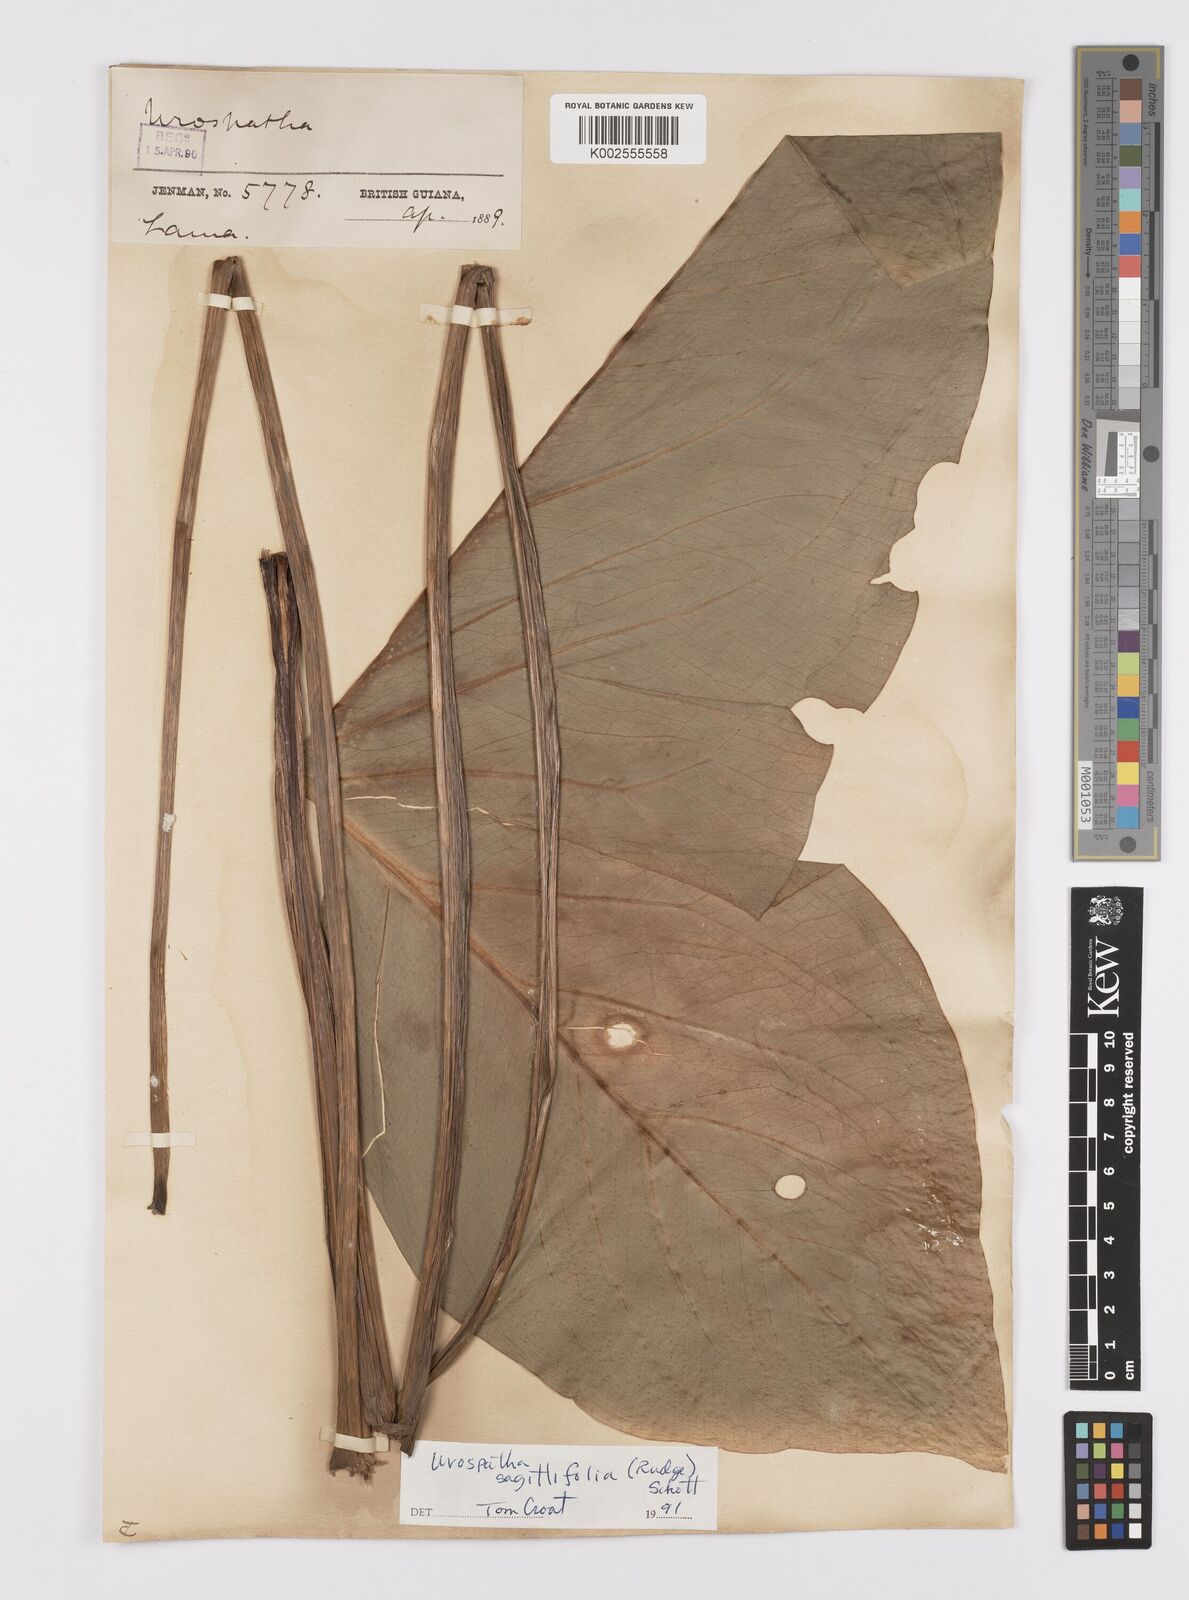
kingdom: Plantae
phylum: Tracheophyta
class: Liliopsida
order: Alismatales
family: Araceae
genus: Urospatha
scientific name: Urospatha sagittifolia
